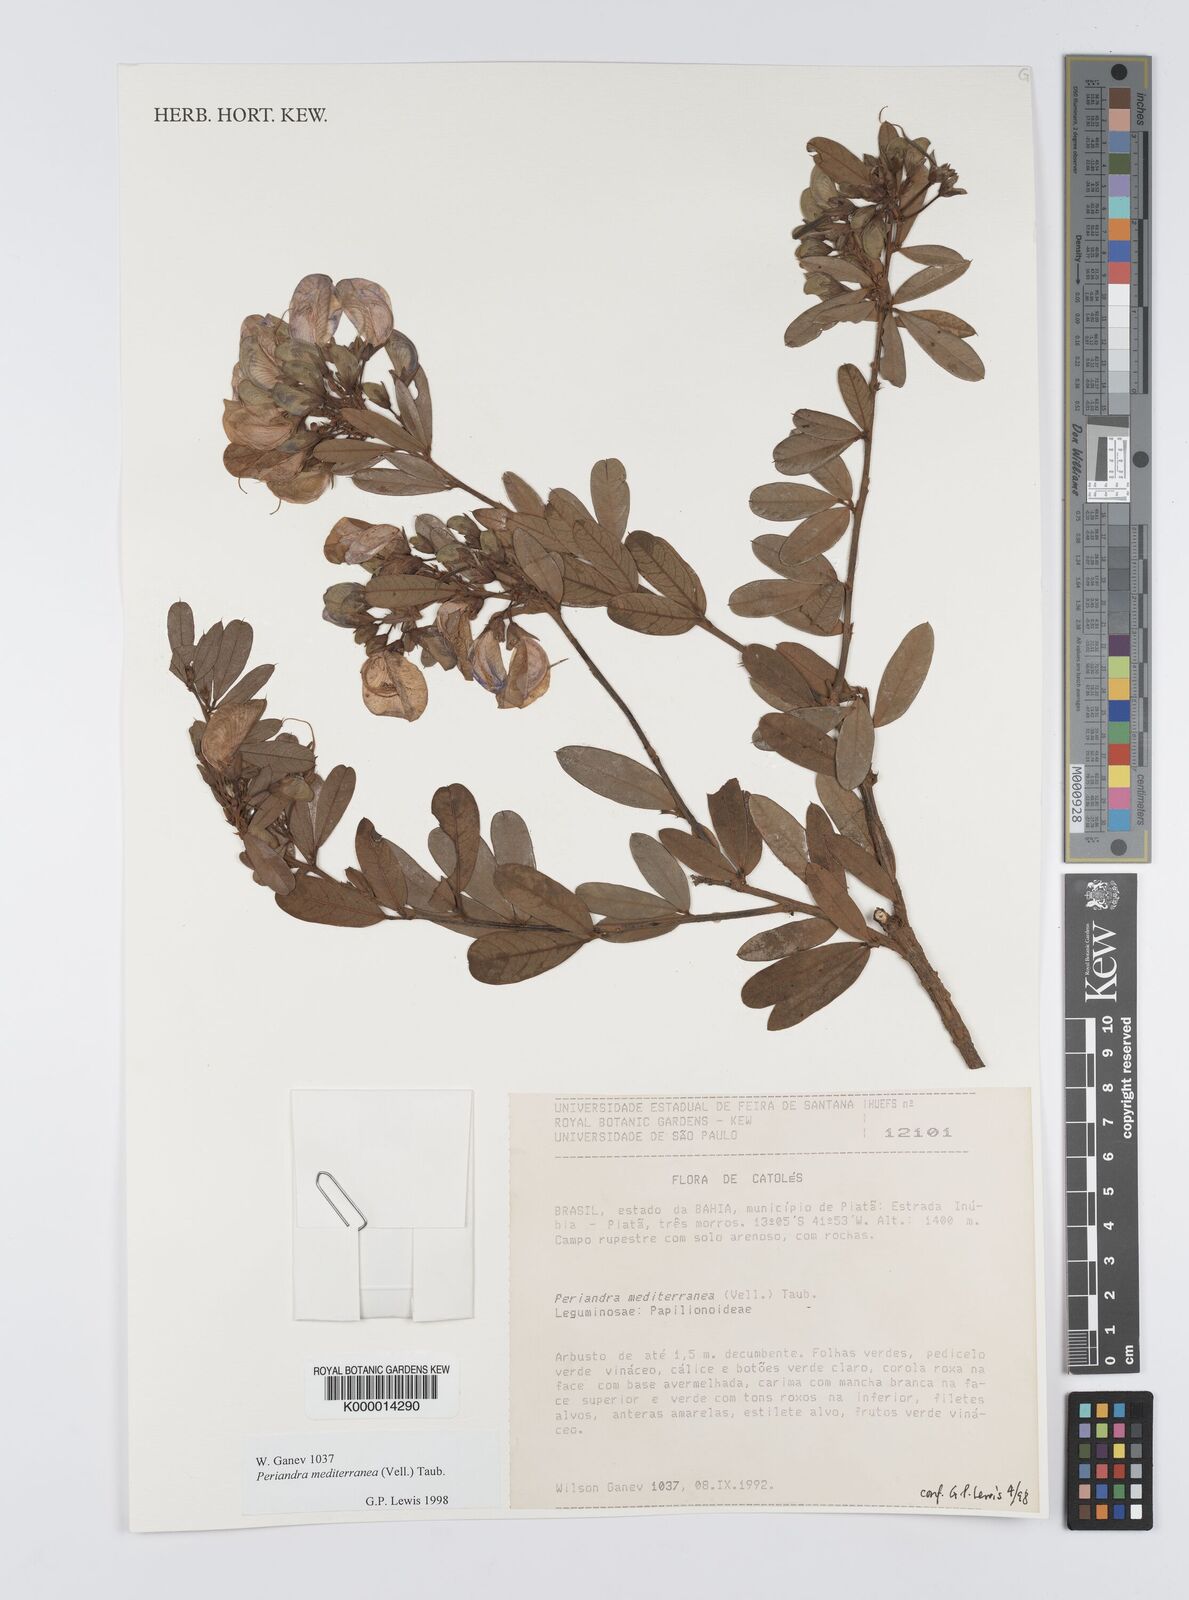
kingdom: Plantae
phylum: Tracheophyta
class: Magnoliopsida
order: Fabales
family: Fabaceae
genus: Periandra
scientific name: Periandra mediterranea
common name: Brazilian licorice
